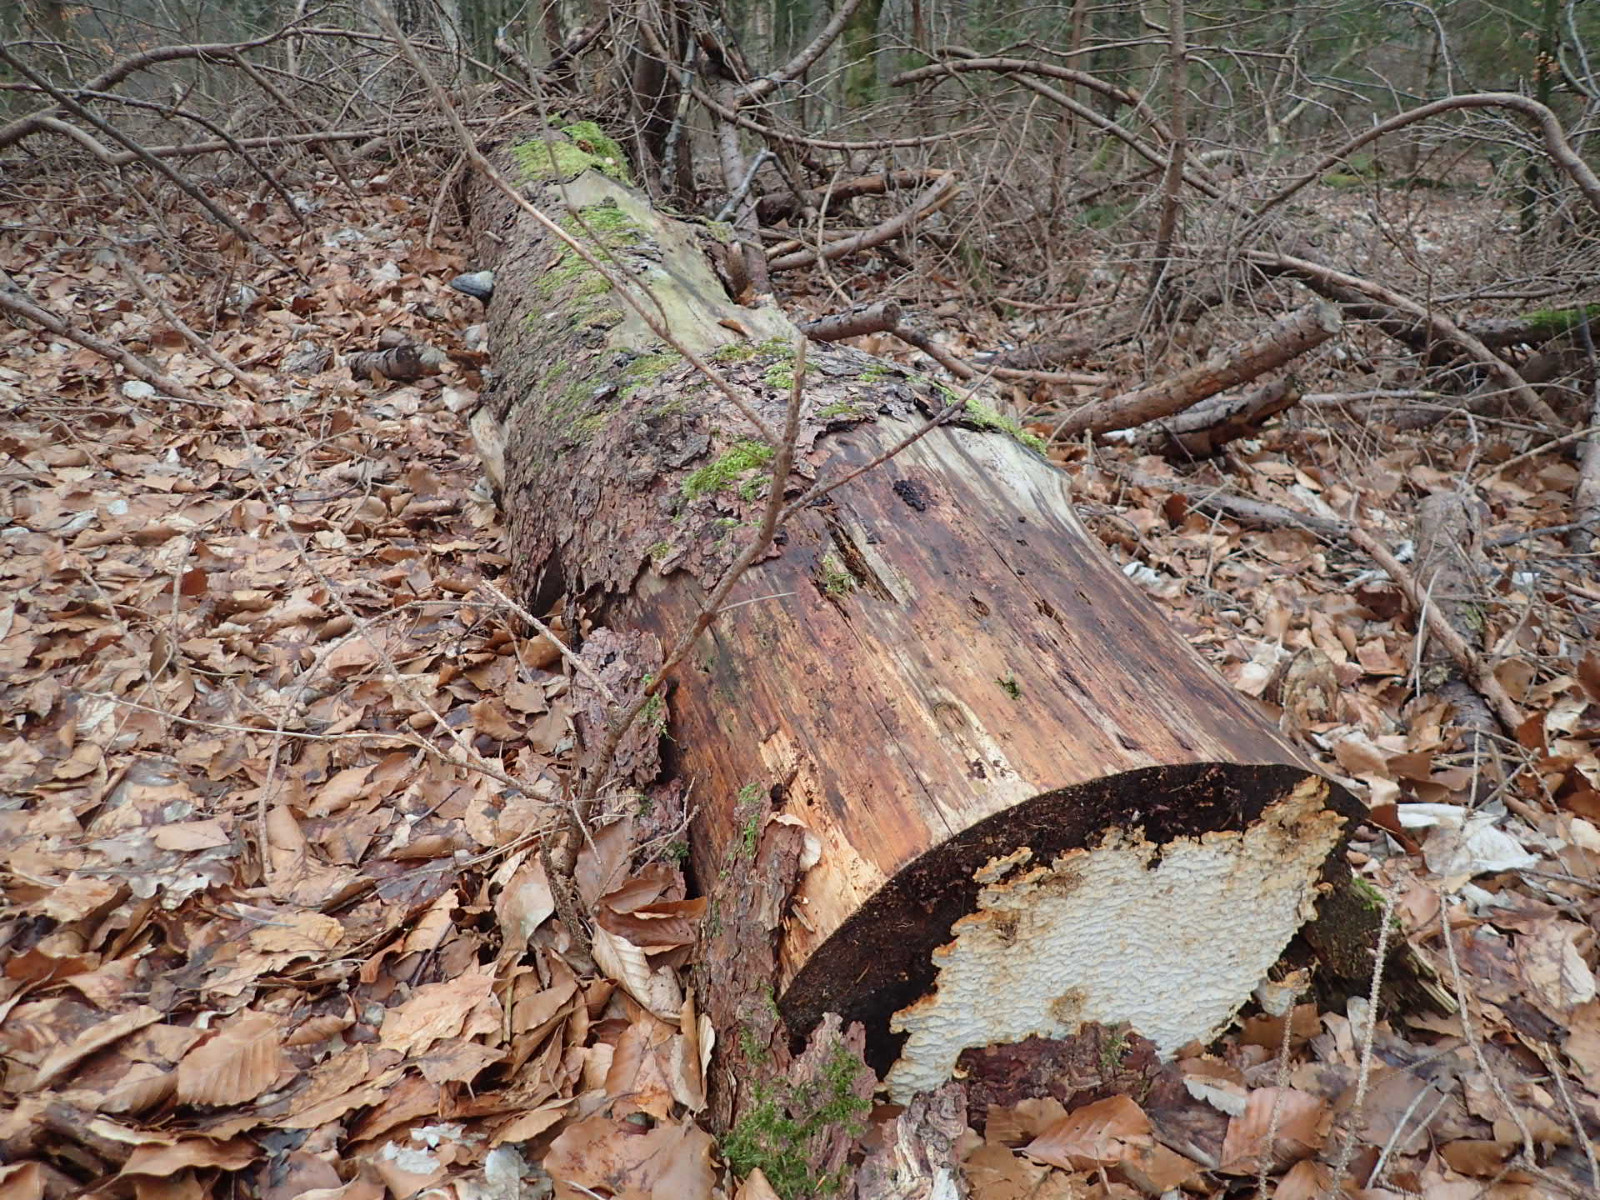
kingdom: Fungi
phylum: Basidiomycota
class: Agaricomycetes
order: Polyporales
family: Fomitopsidaceae
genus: Neoantrodia
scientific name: Neoantrodia serialis
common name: række-sejporesvamp
